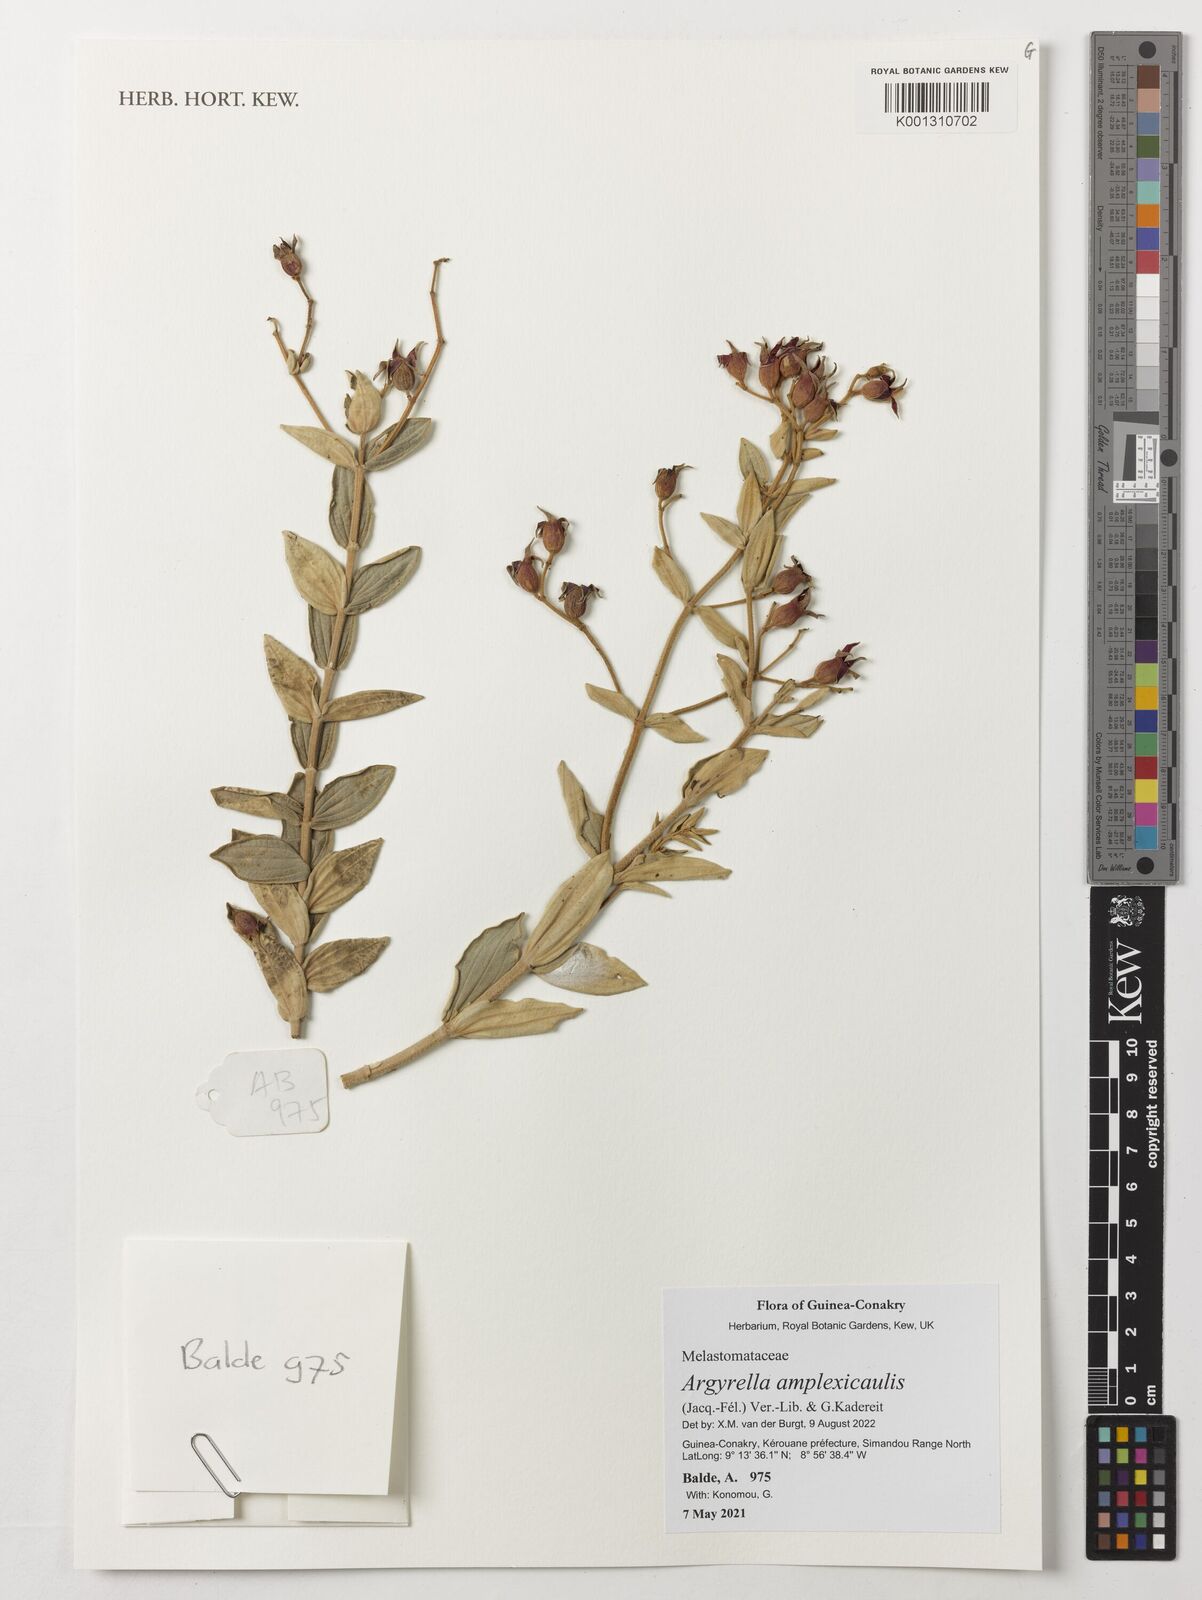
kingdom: Plantae
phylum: Tracheophyta
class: Magnoliopsida
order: Myrtales
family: Melastomataceae
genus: Argyrella
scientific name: Argyrella amplexicaulis
